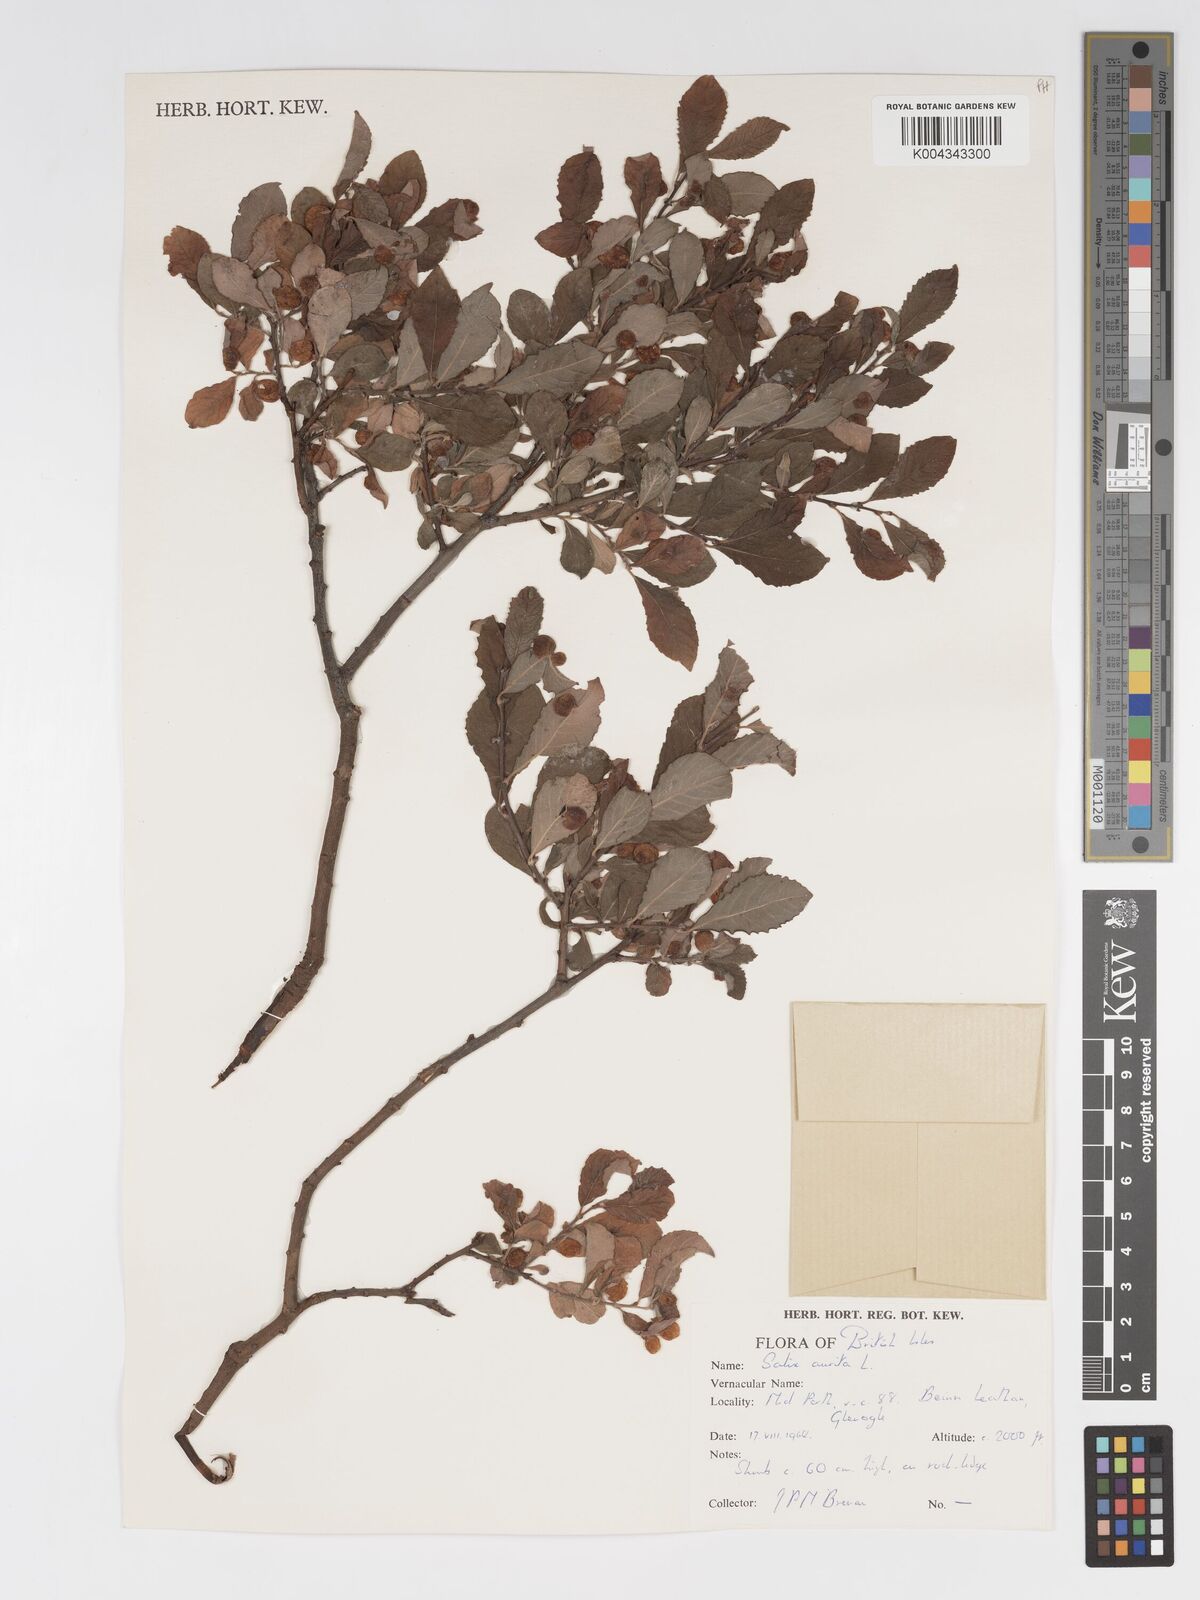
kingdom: Plantae
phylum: Tracheophyta
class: Magnoliopsida
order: Malpighiales
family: Salicaceae
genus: Salix
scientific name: Salix aurita
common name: Eared willow
